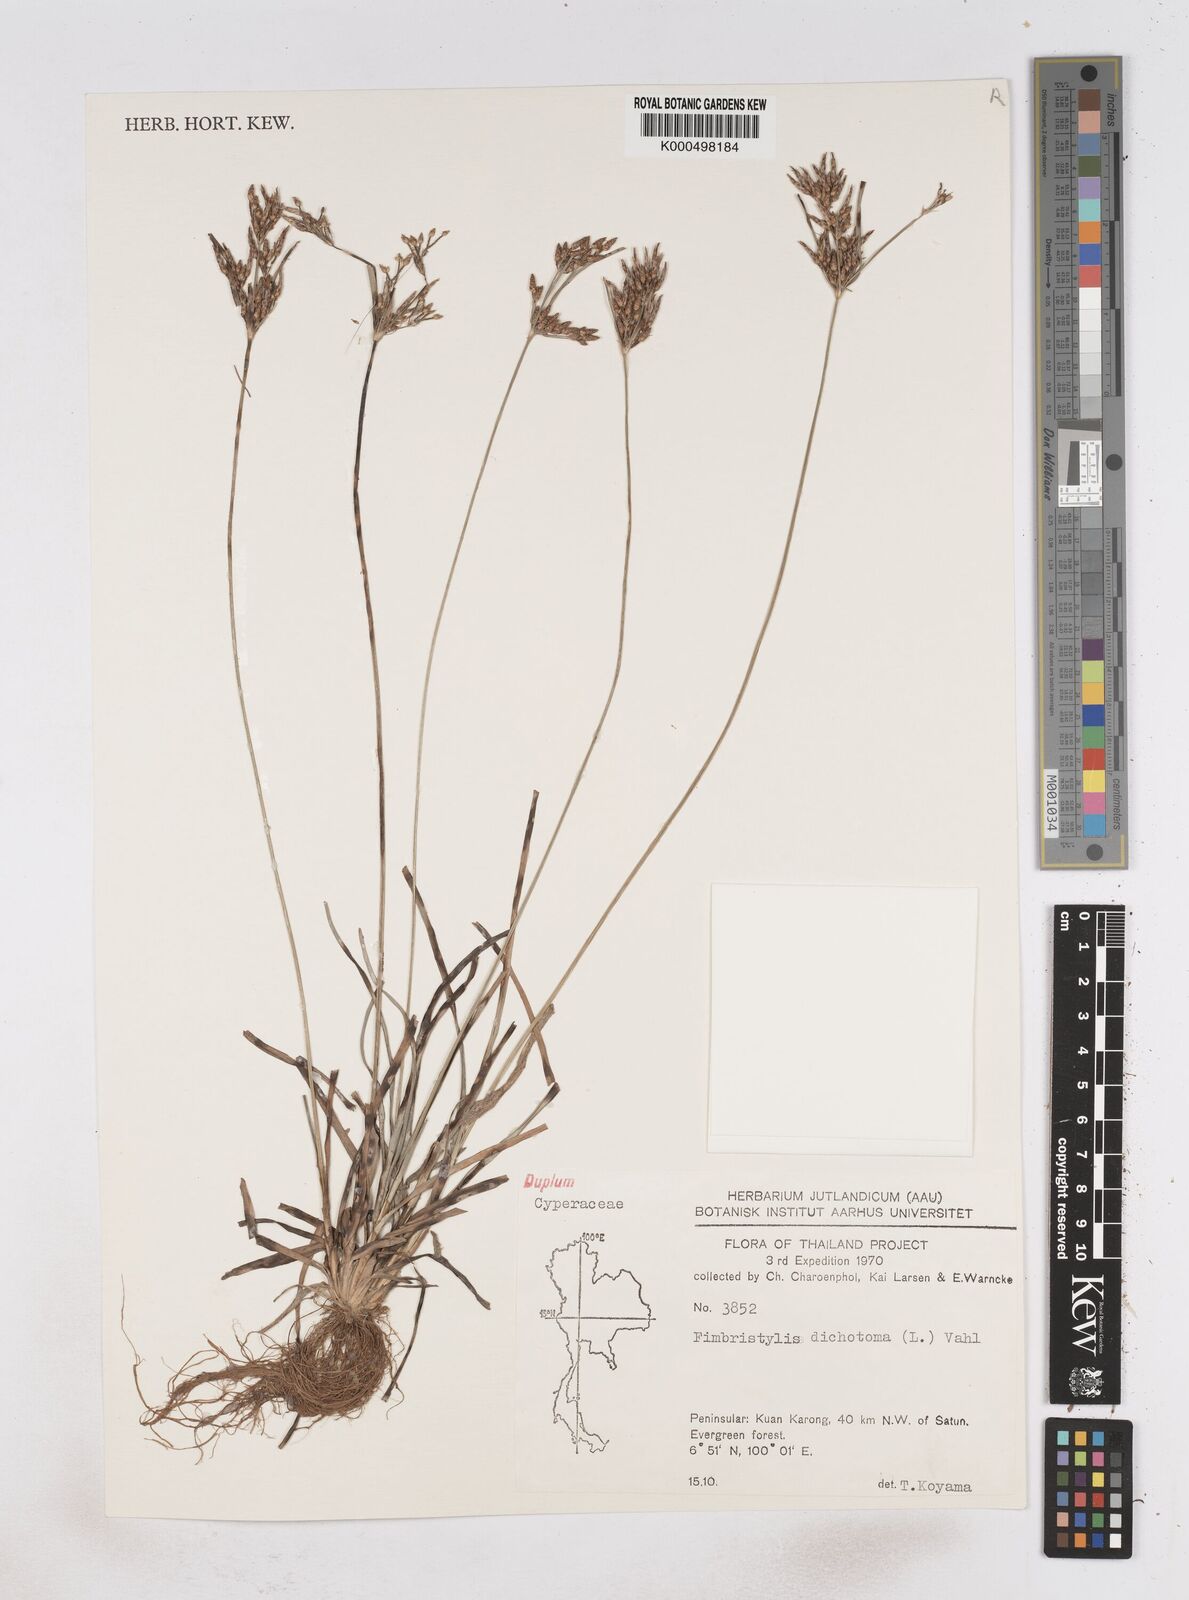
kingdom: Plantae
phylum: Tracheophyta
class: Liliopsida
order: Poales
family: Cyperaceae
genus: Fimbristylis
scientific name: Fimbristylis dichotoma
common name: Forked fimbry
